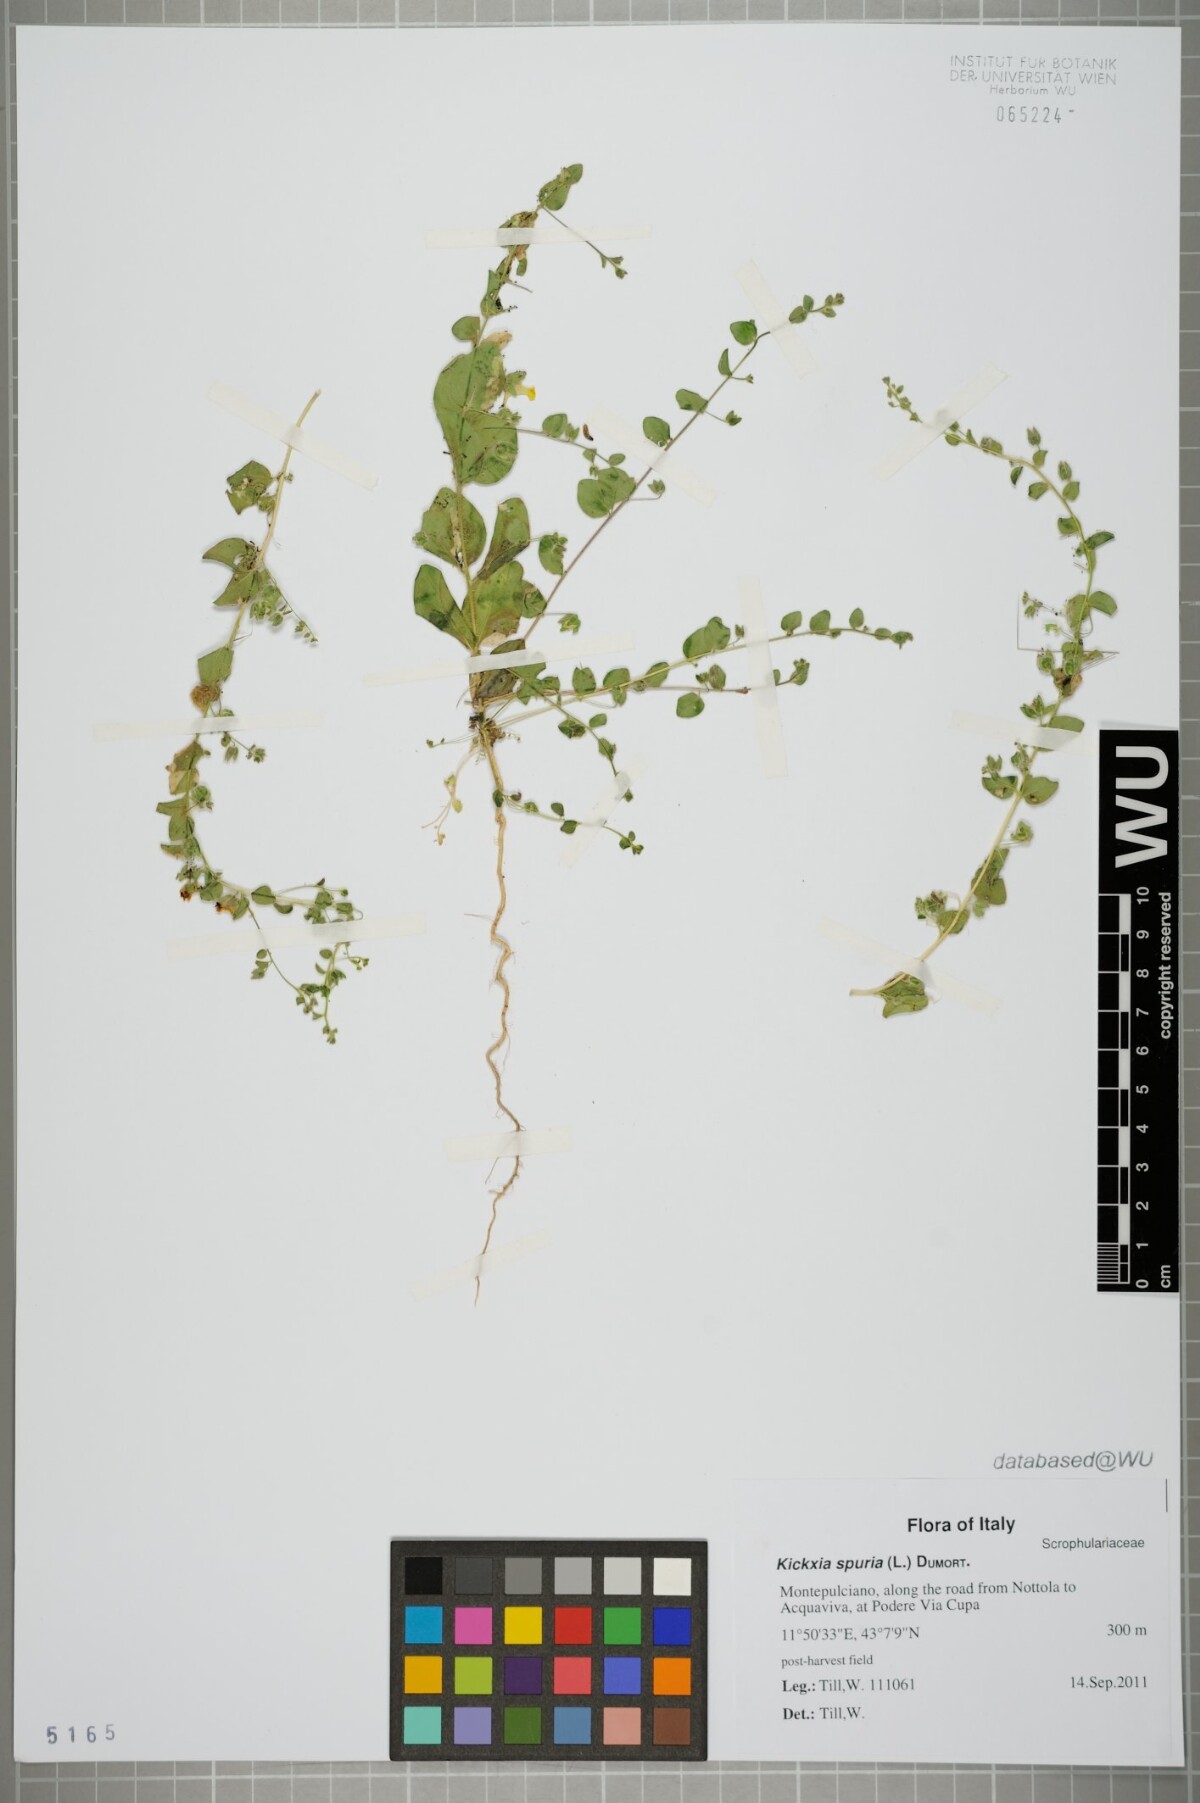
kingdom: Plantae
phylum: Tracheophyta
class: Magnoliopsida
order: Lamiales
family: Plantaginaceae
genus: Kickxia
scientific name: Kickxia spuria
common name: Round-leaved fluellen
